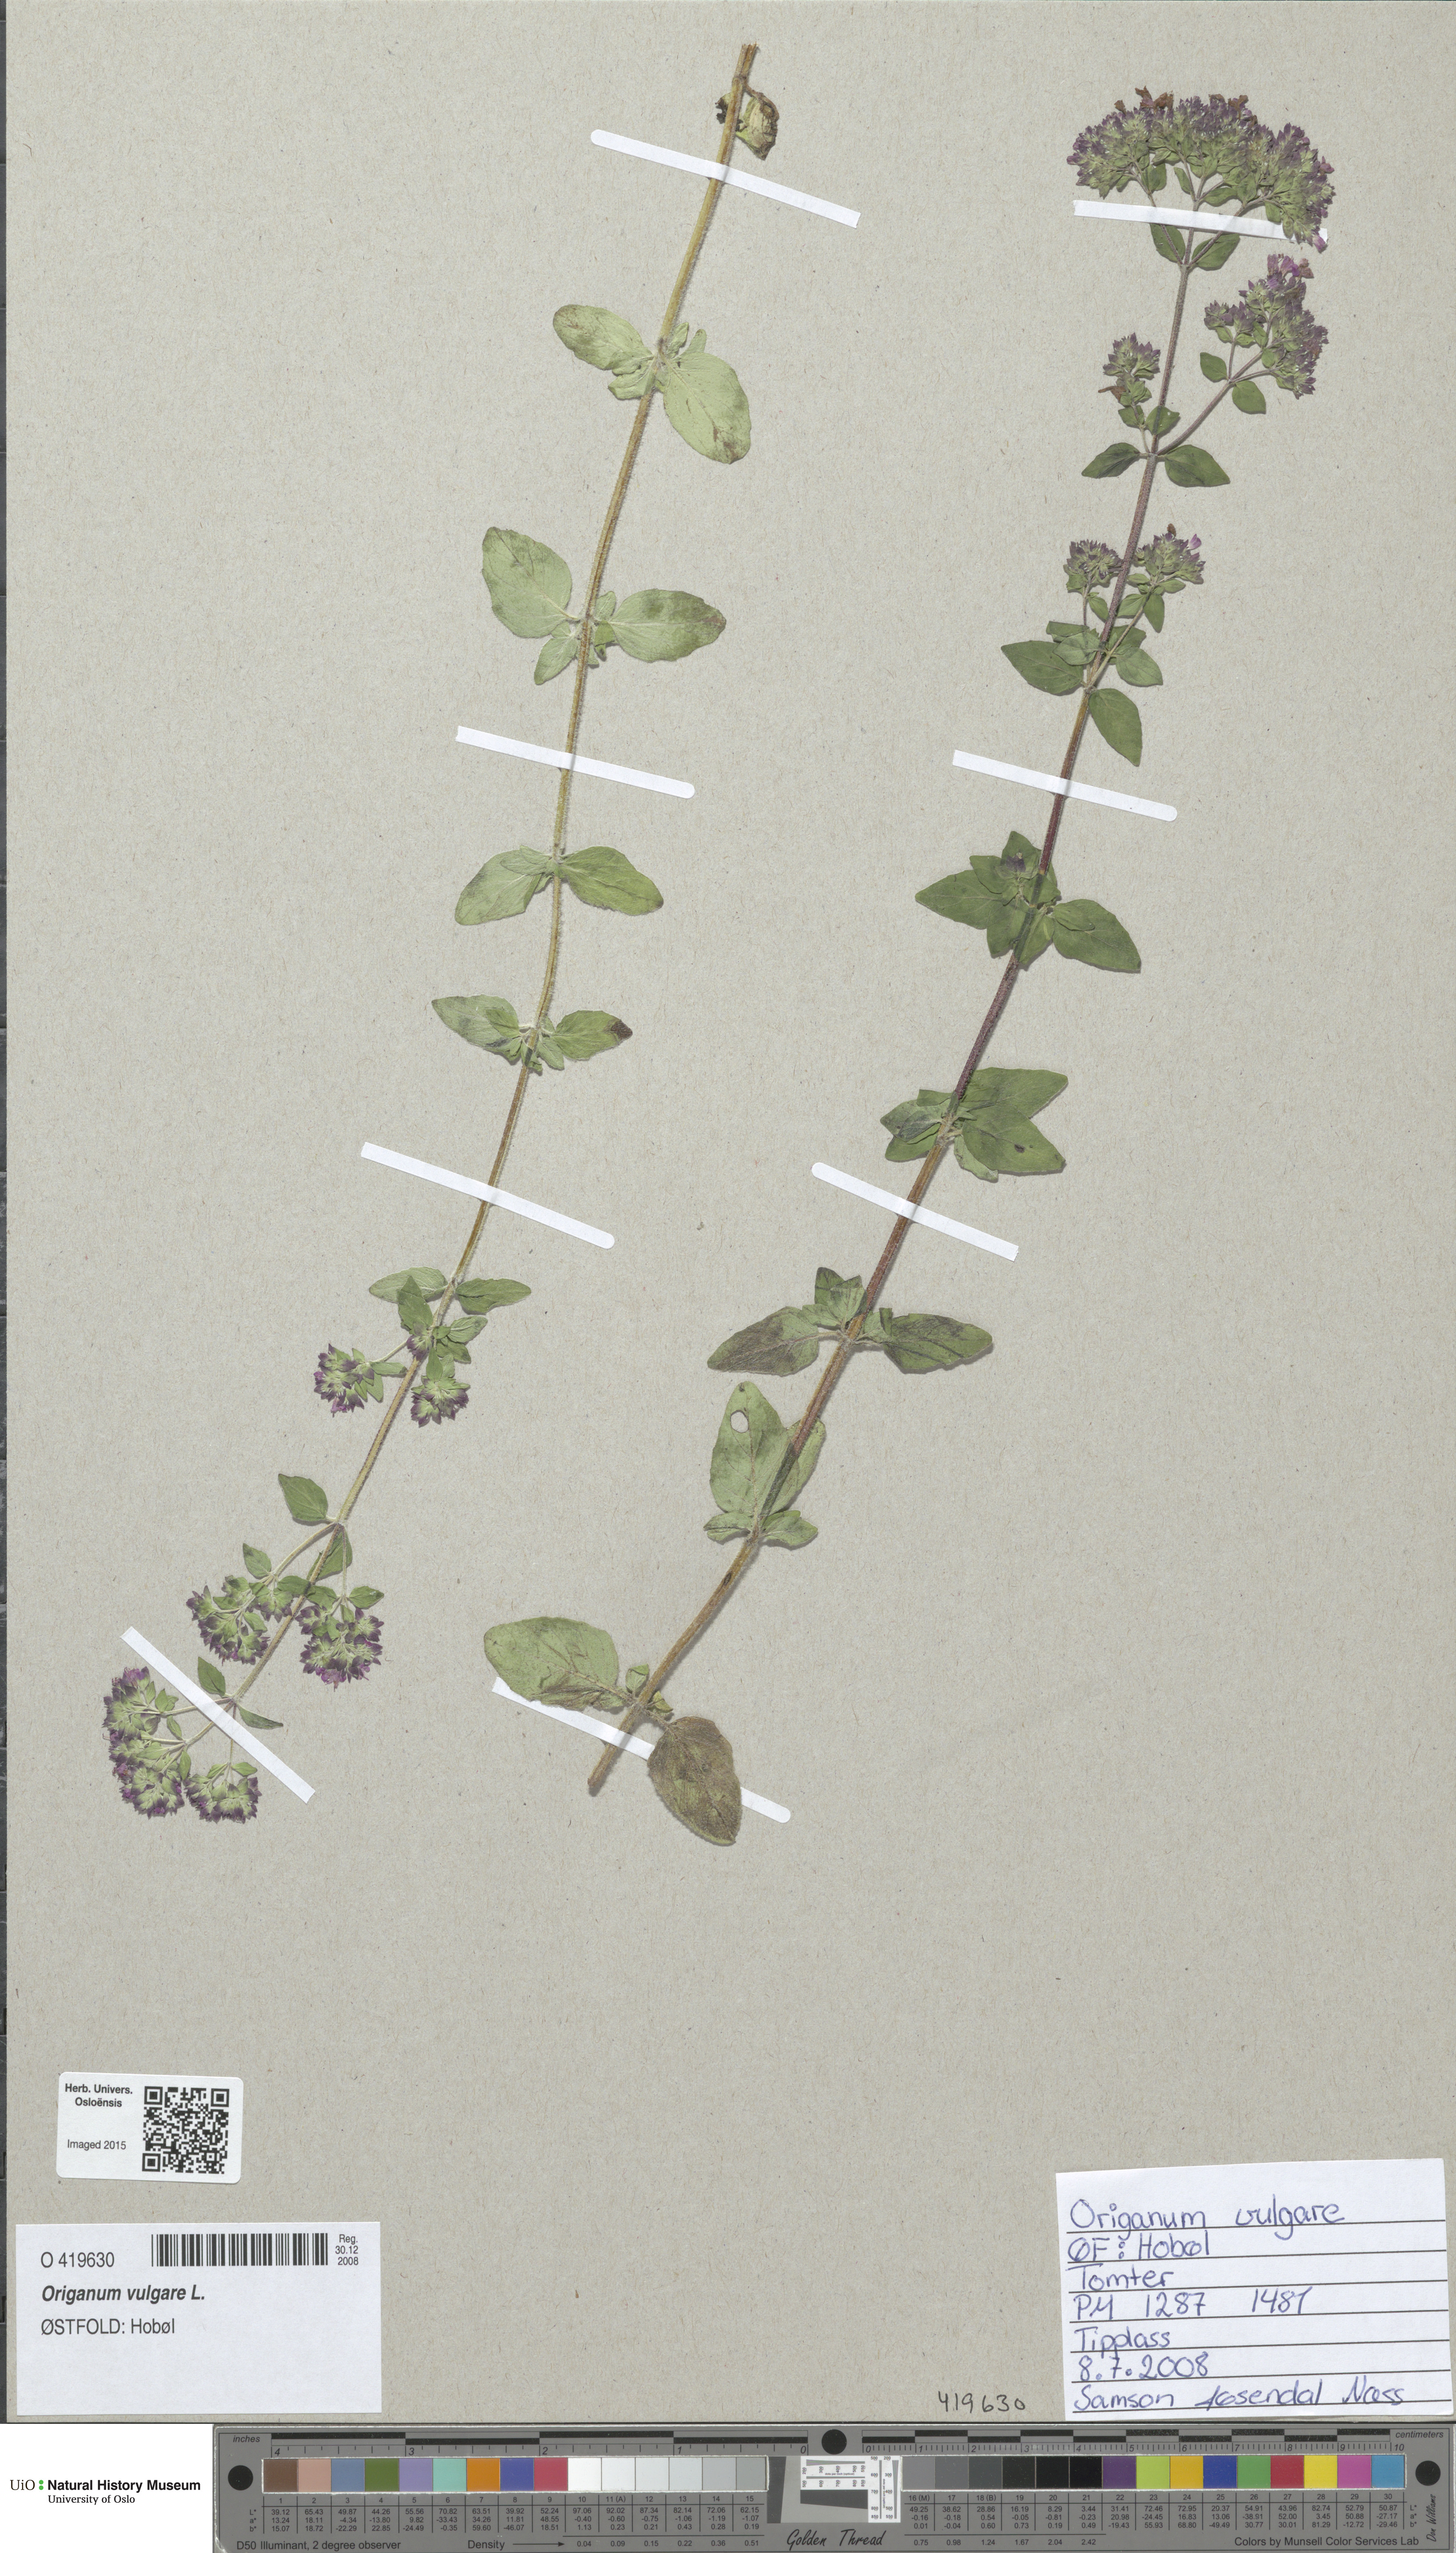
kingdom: Plantae
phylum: Tracheophyta
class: Magnoliopsida
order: Lamiales
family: Lamiaceae
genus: Origanum
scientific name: Origanum vulgare
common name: Wild marjoram
